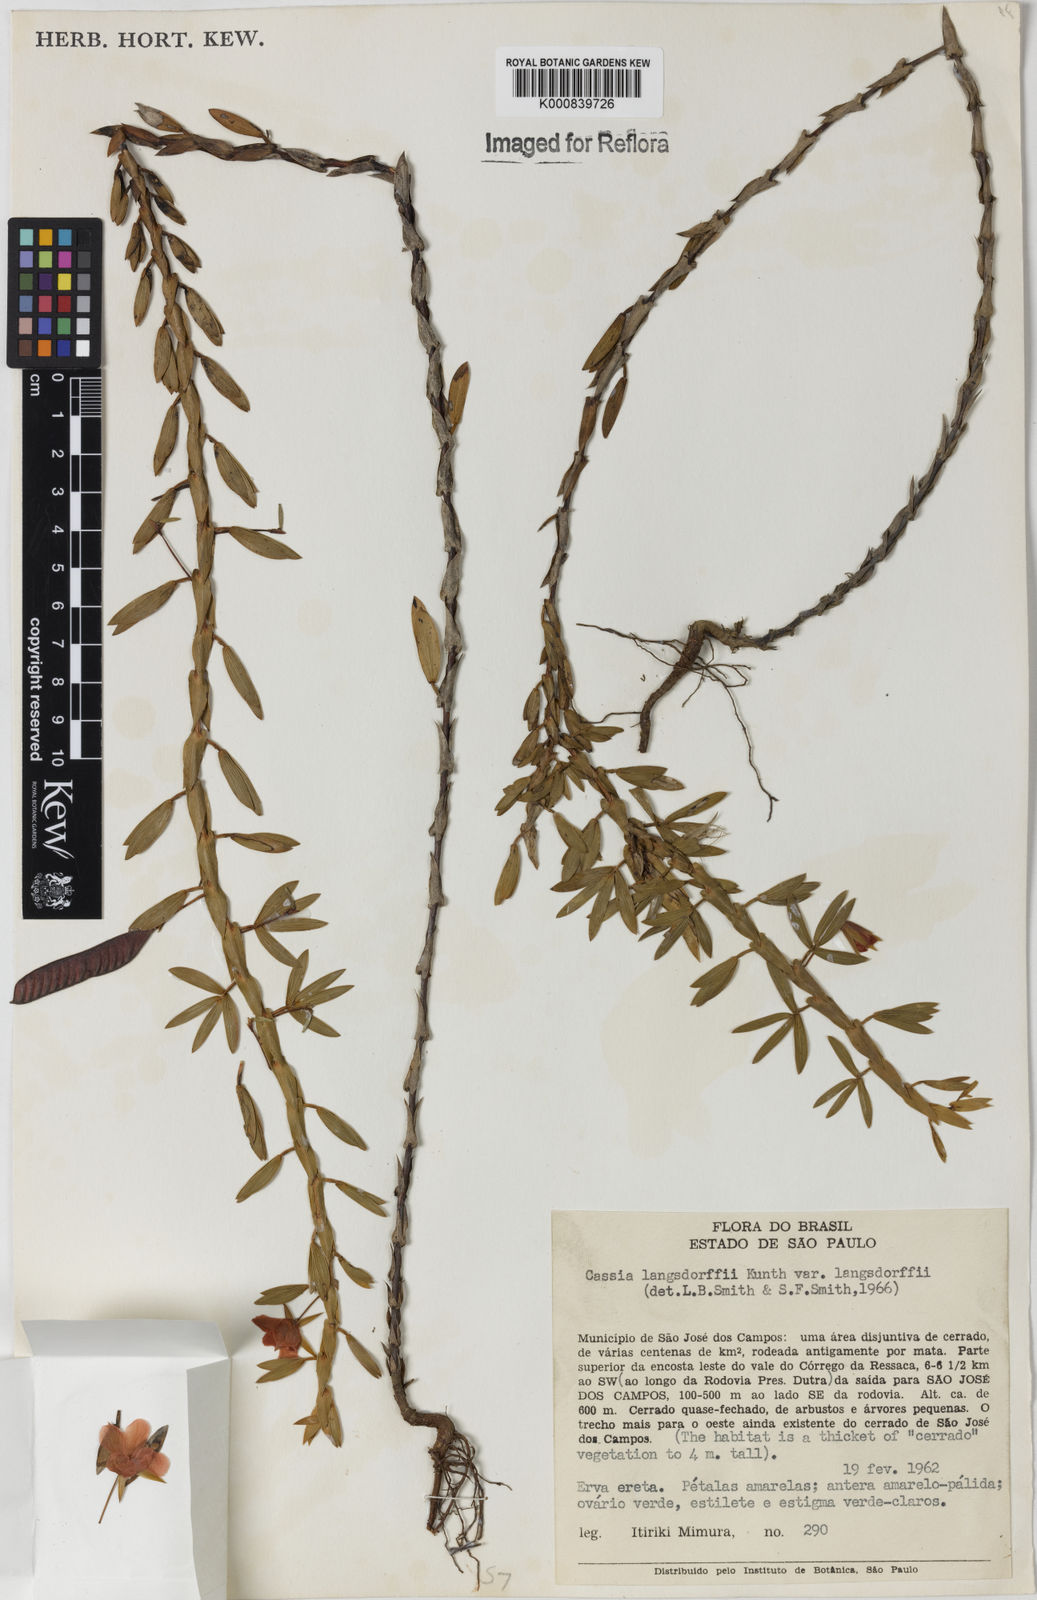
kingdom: Plantae
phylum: Tracheophyta
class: Magnoliopsida
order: Fabales
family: Fabaceae
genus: Chamaecrista
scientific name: Chamaecrista langsdorffii
